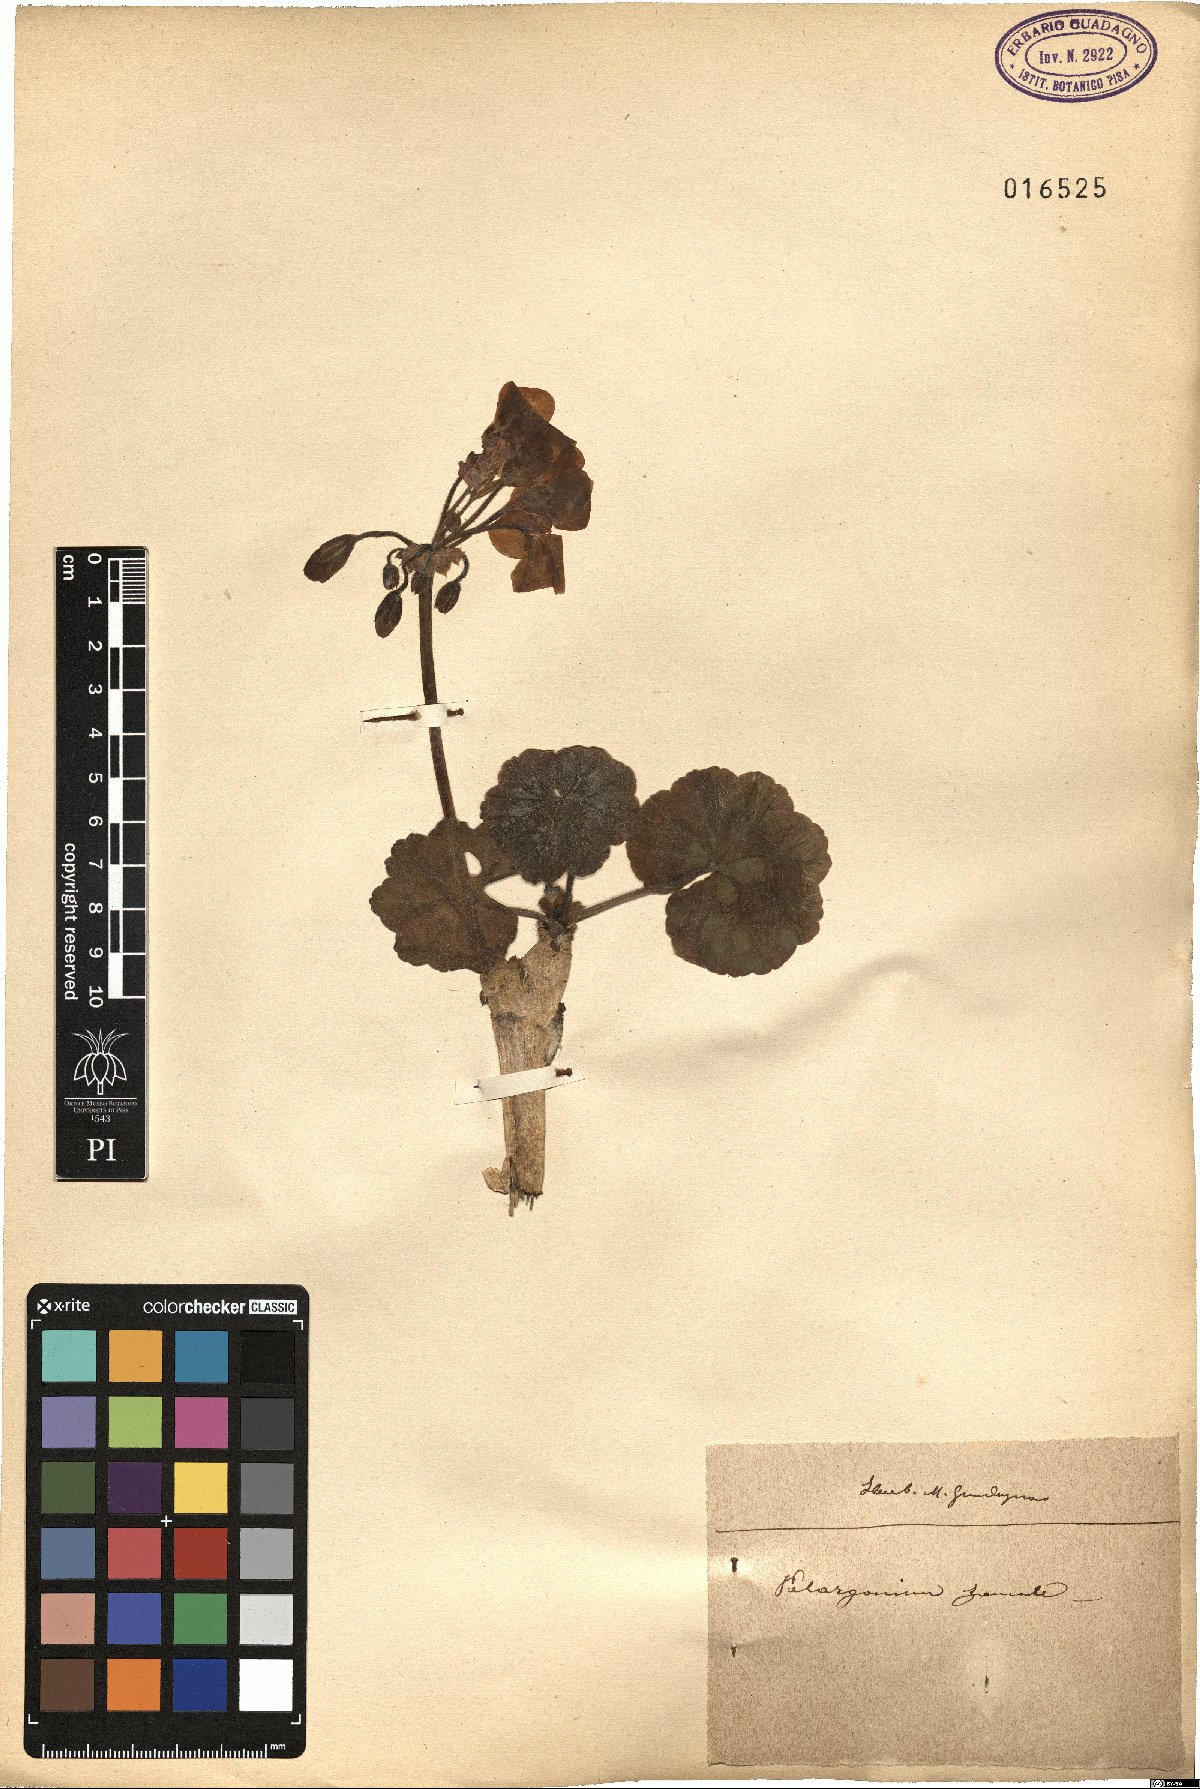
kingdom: Plantae
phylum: Tracheophyta
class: Magnoliopsida
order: Geraniales
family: Geraniaceae
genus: Pelargonium
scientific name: Pelargonium zonale
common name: Horseshoe geranium
